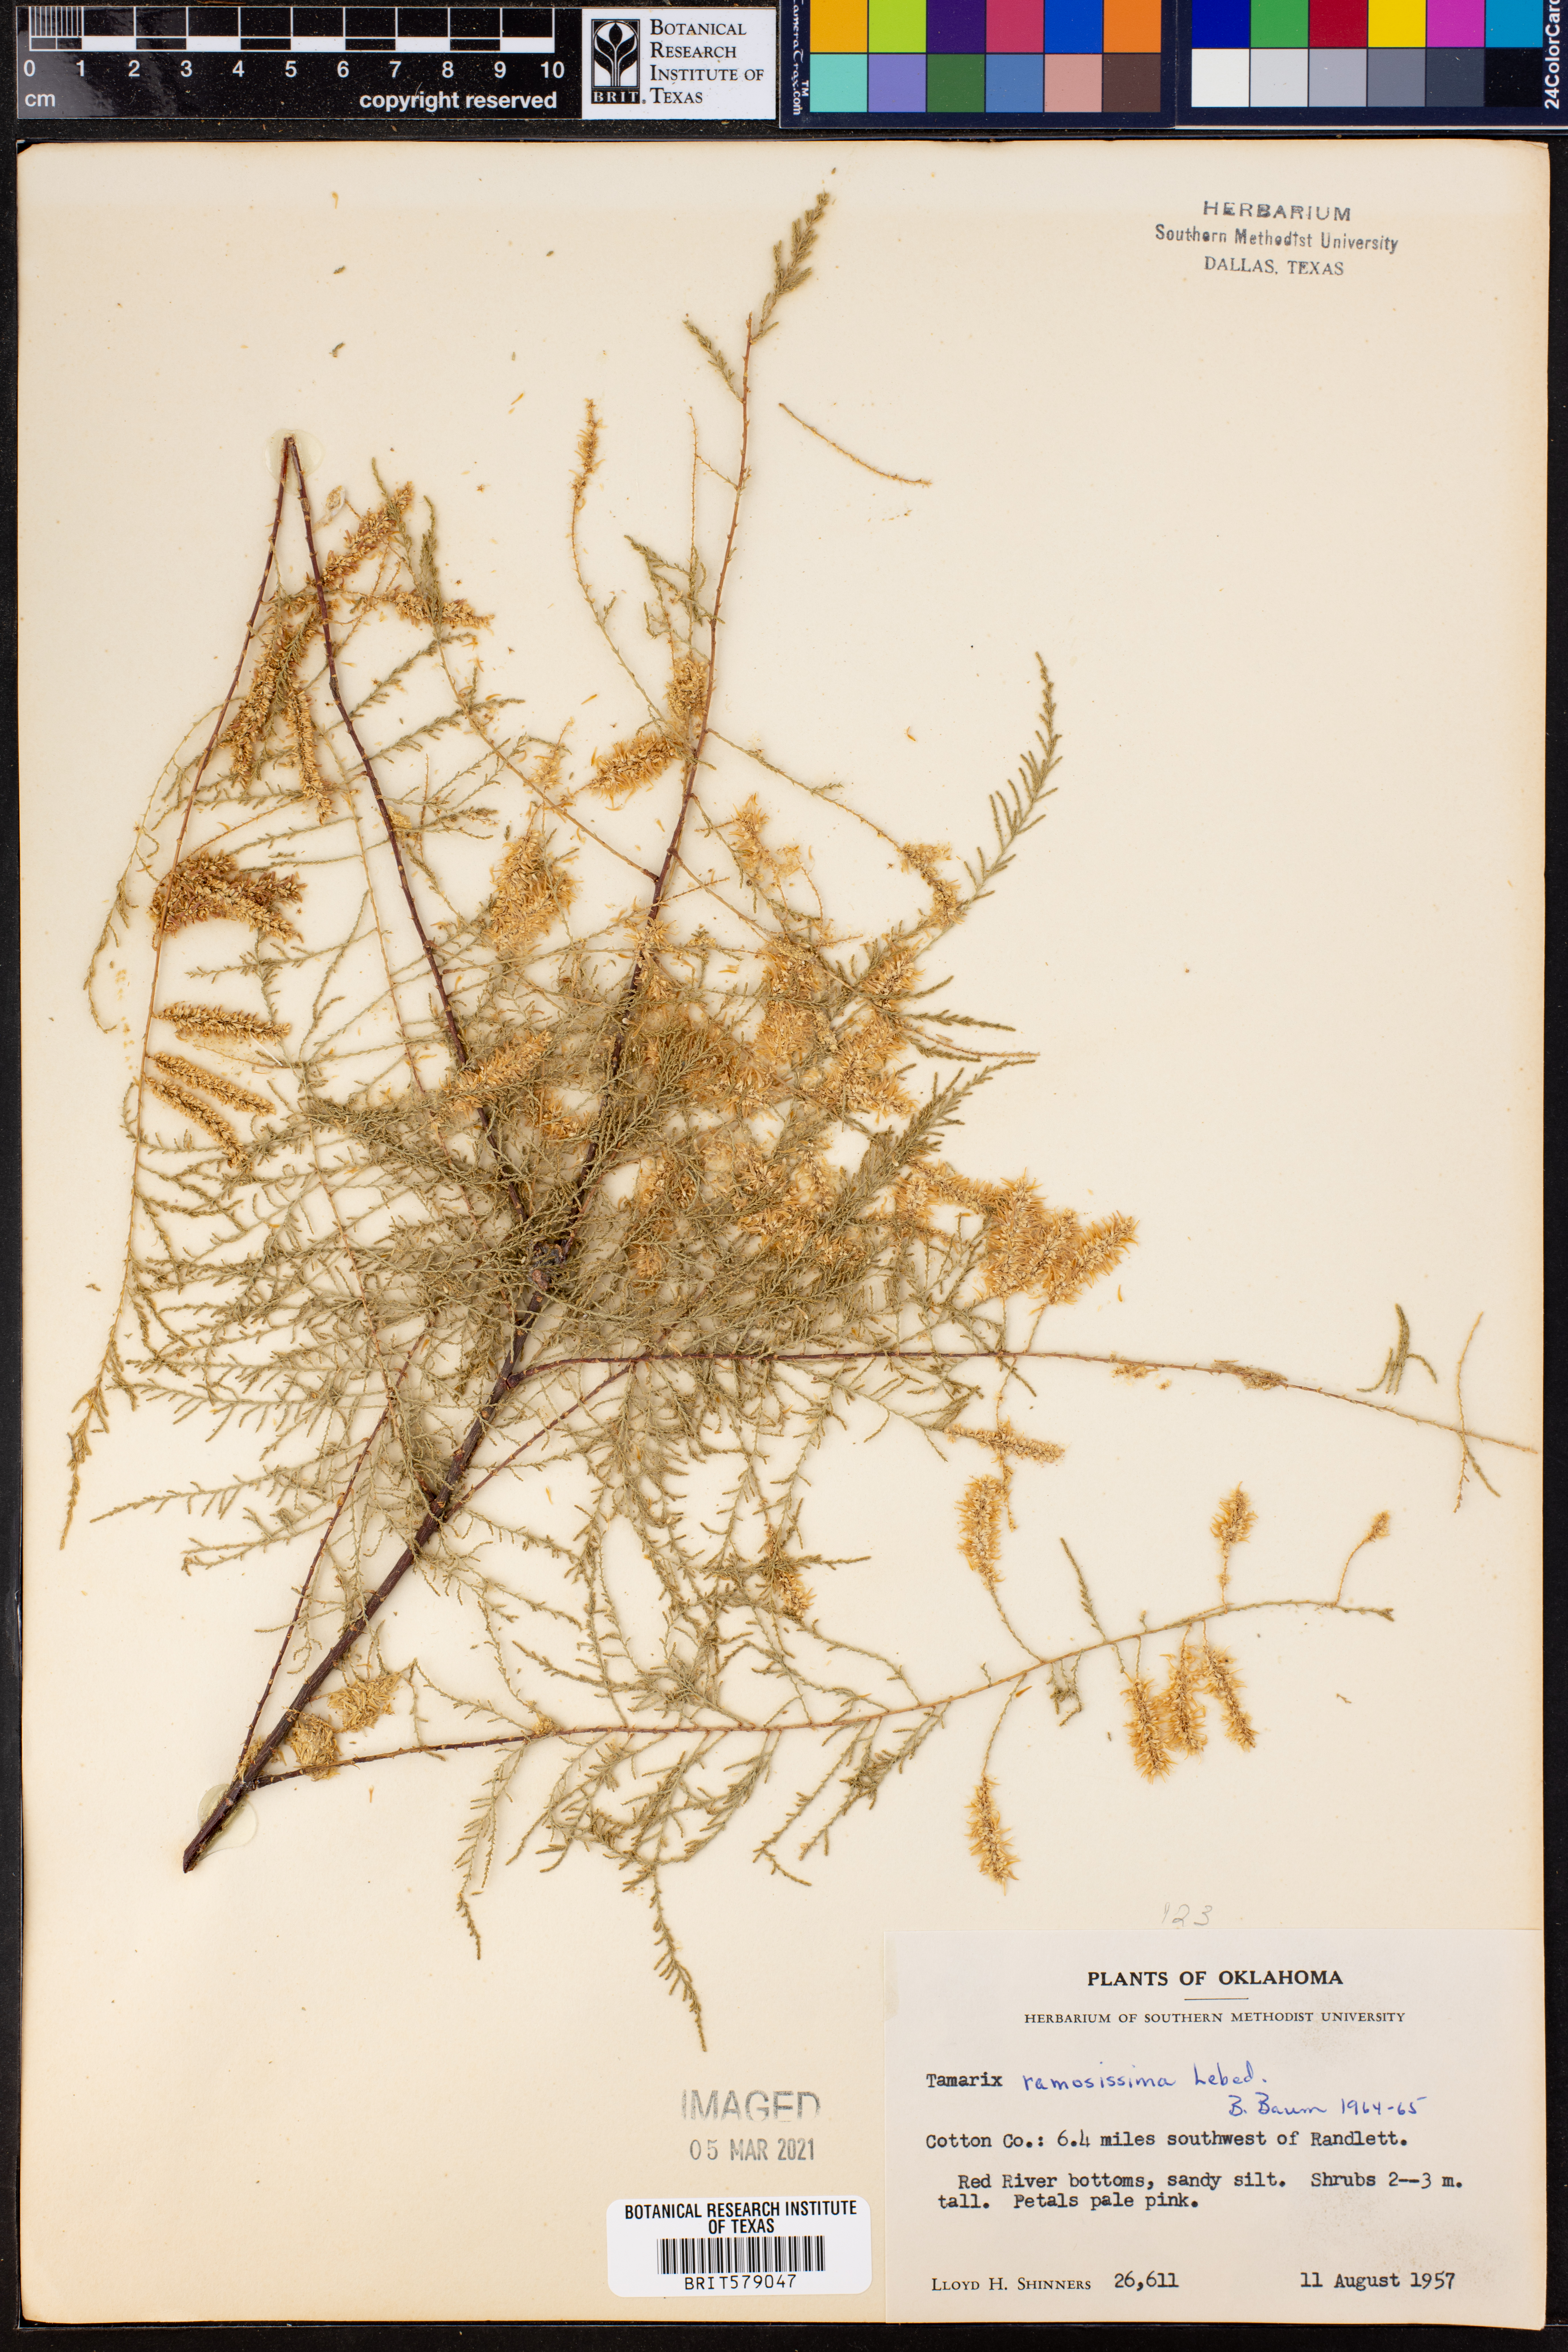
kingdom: Plantae
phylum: Tracheophyta
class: Magnoliopsida
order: Caryophyllales
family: Tamaricaceae
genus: Tamarix
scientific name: Tamarix ramosissima
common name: Pink tamarisk
